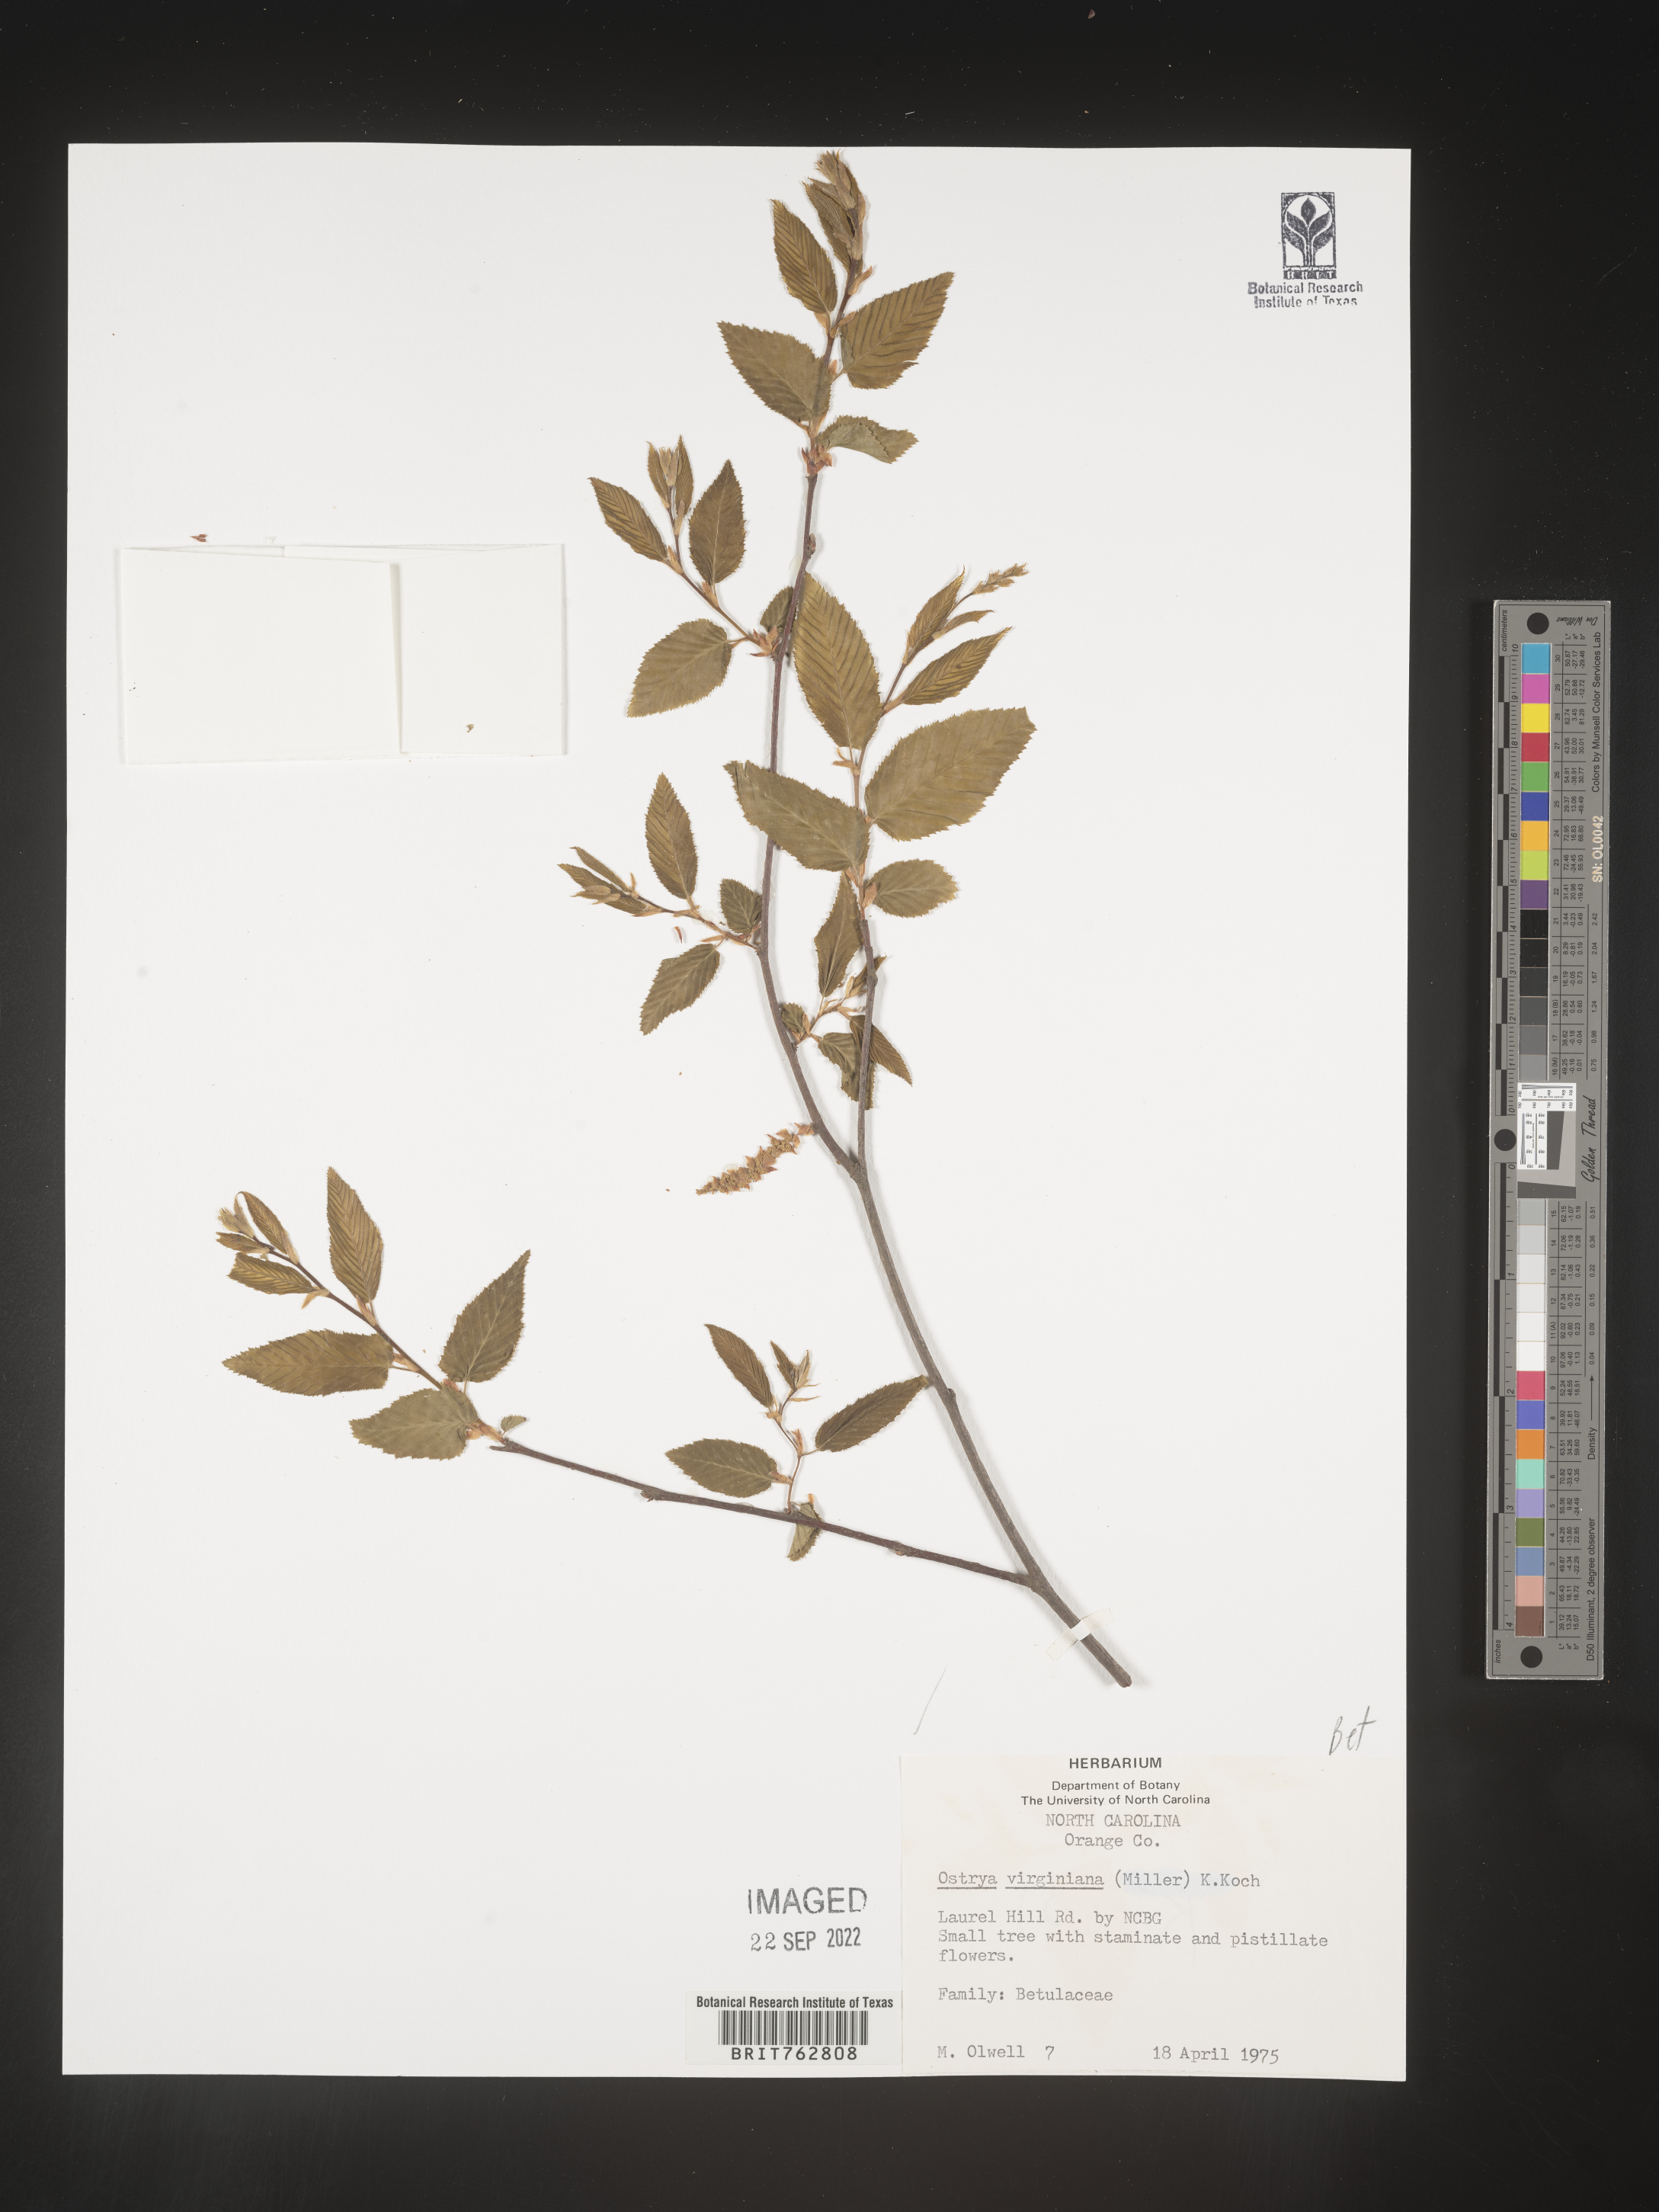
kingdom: Plantae
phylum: Tracheophyta
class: Magnoliopsida
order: Fagales
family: Betulaceae
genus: Ostrya
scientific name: Ostrya virginiana
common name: Ironwood
